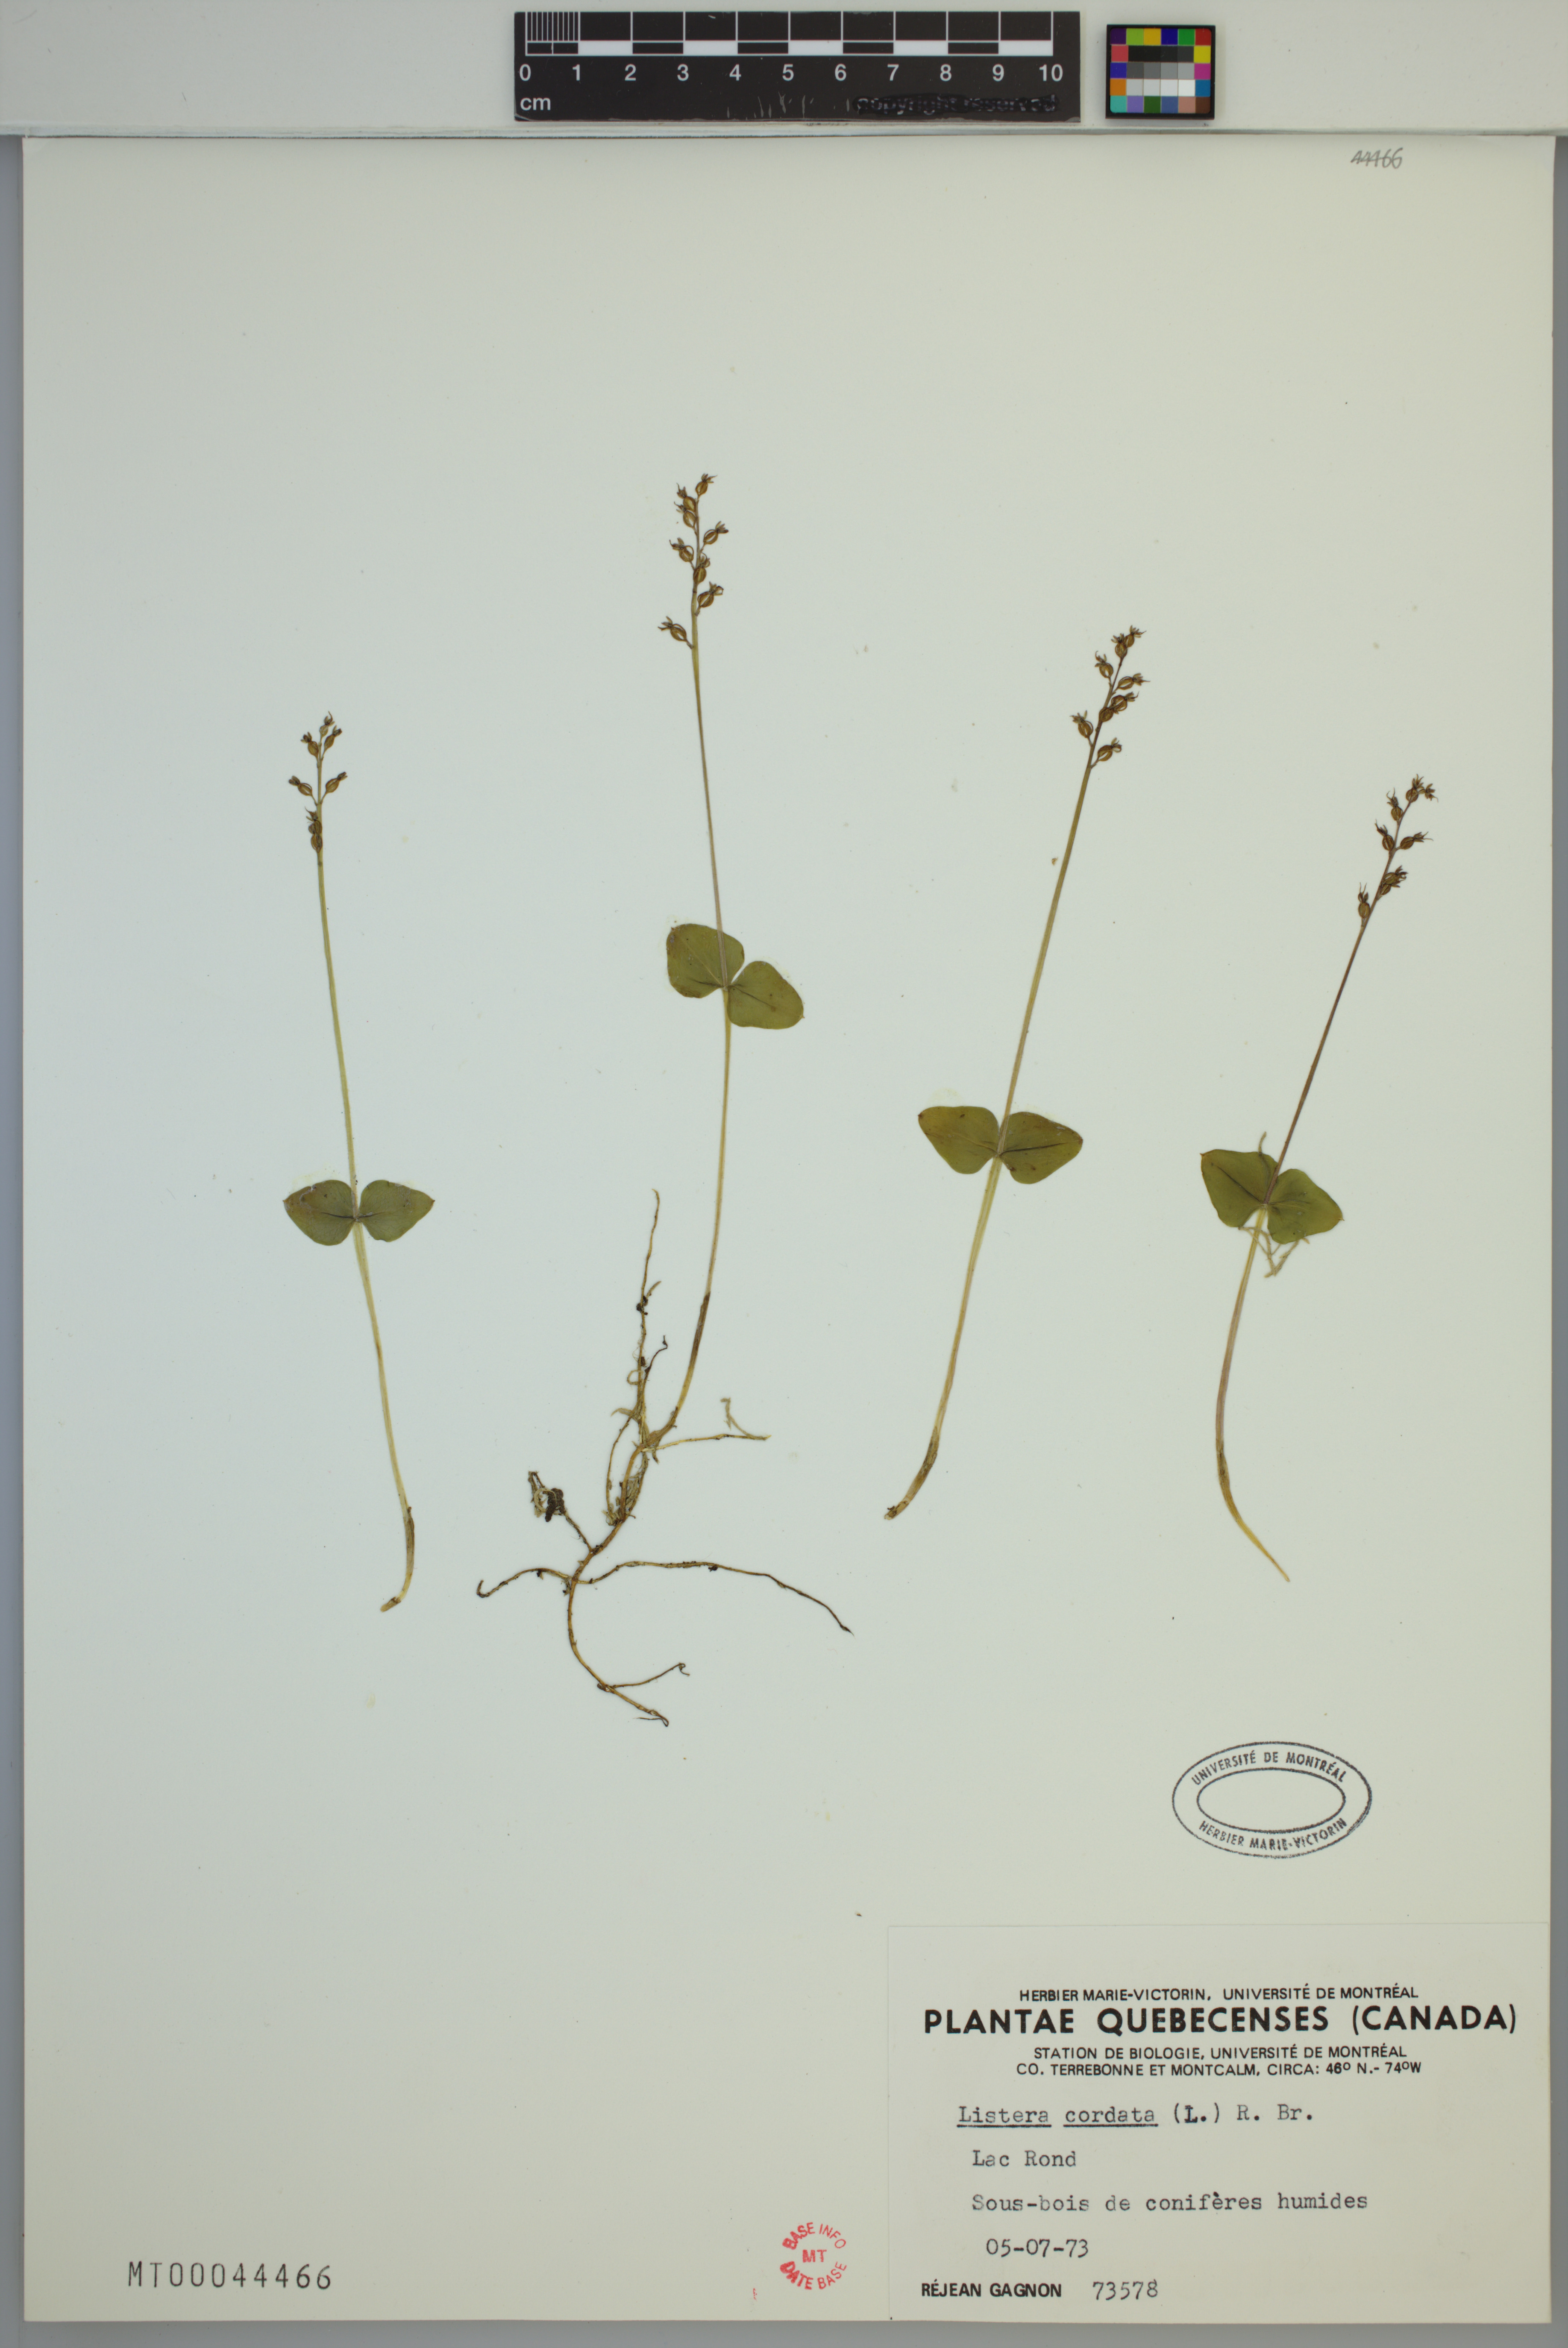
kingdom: Plantae
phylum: Tracheophyta
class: Liliopsida
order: Asparagales
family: Orchidaceae
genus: Neottia
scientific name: Neottia cordata
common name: Lesser twayblade
